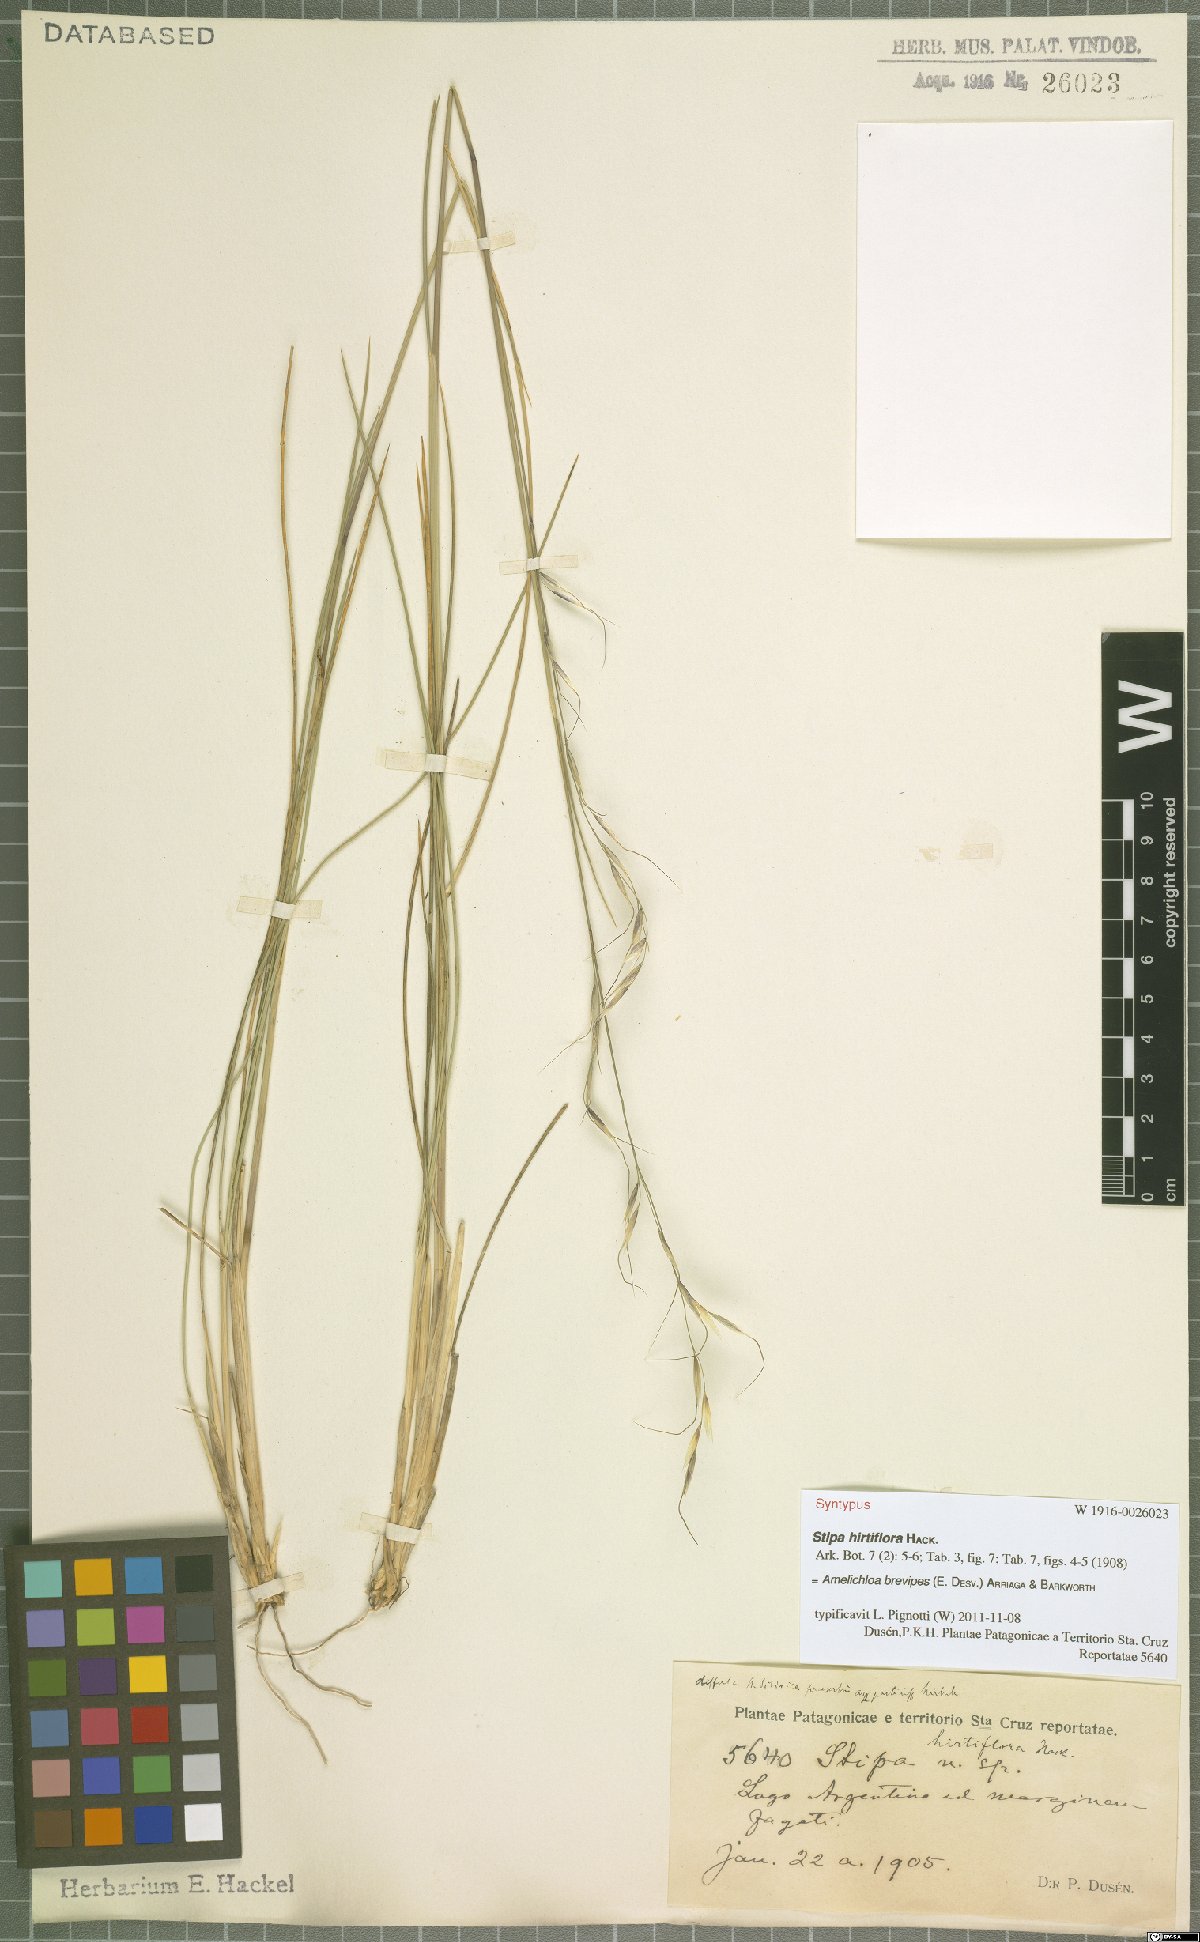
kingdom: Plantae
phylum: Tracheophyta
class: Liliopsida
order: Poales
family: Poaceae
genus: Amelichloa
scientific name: Amelichloa brevipes
